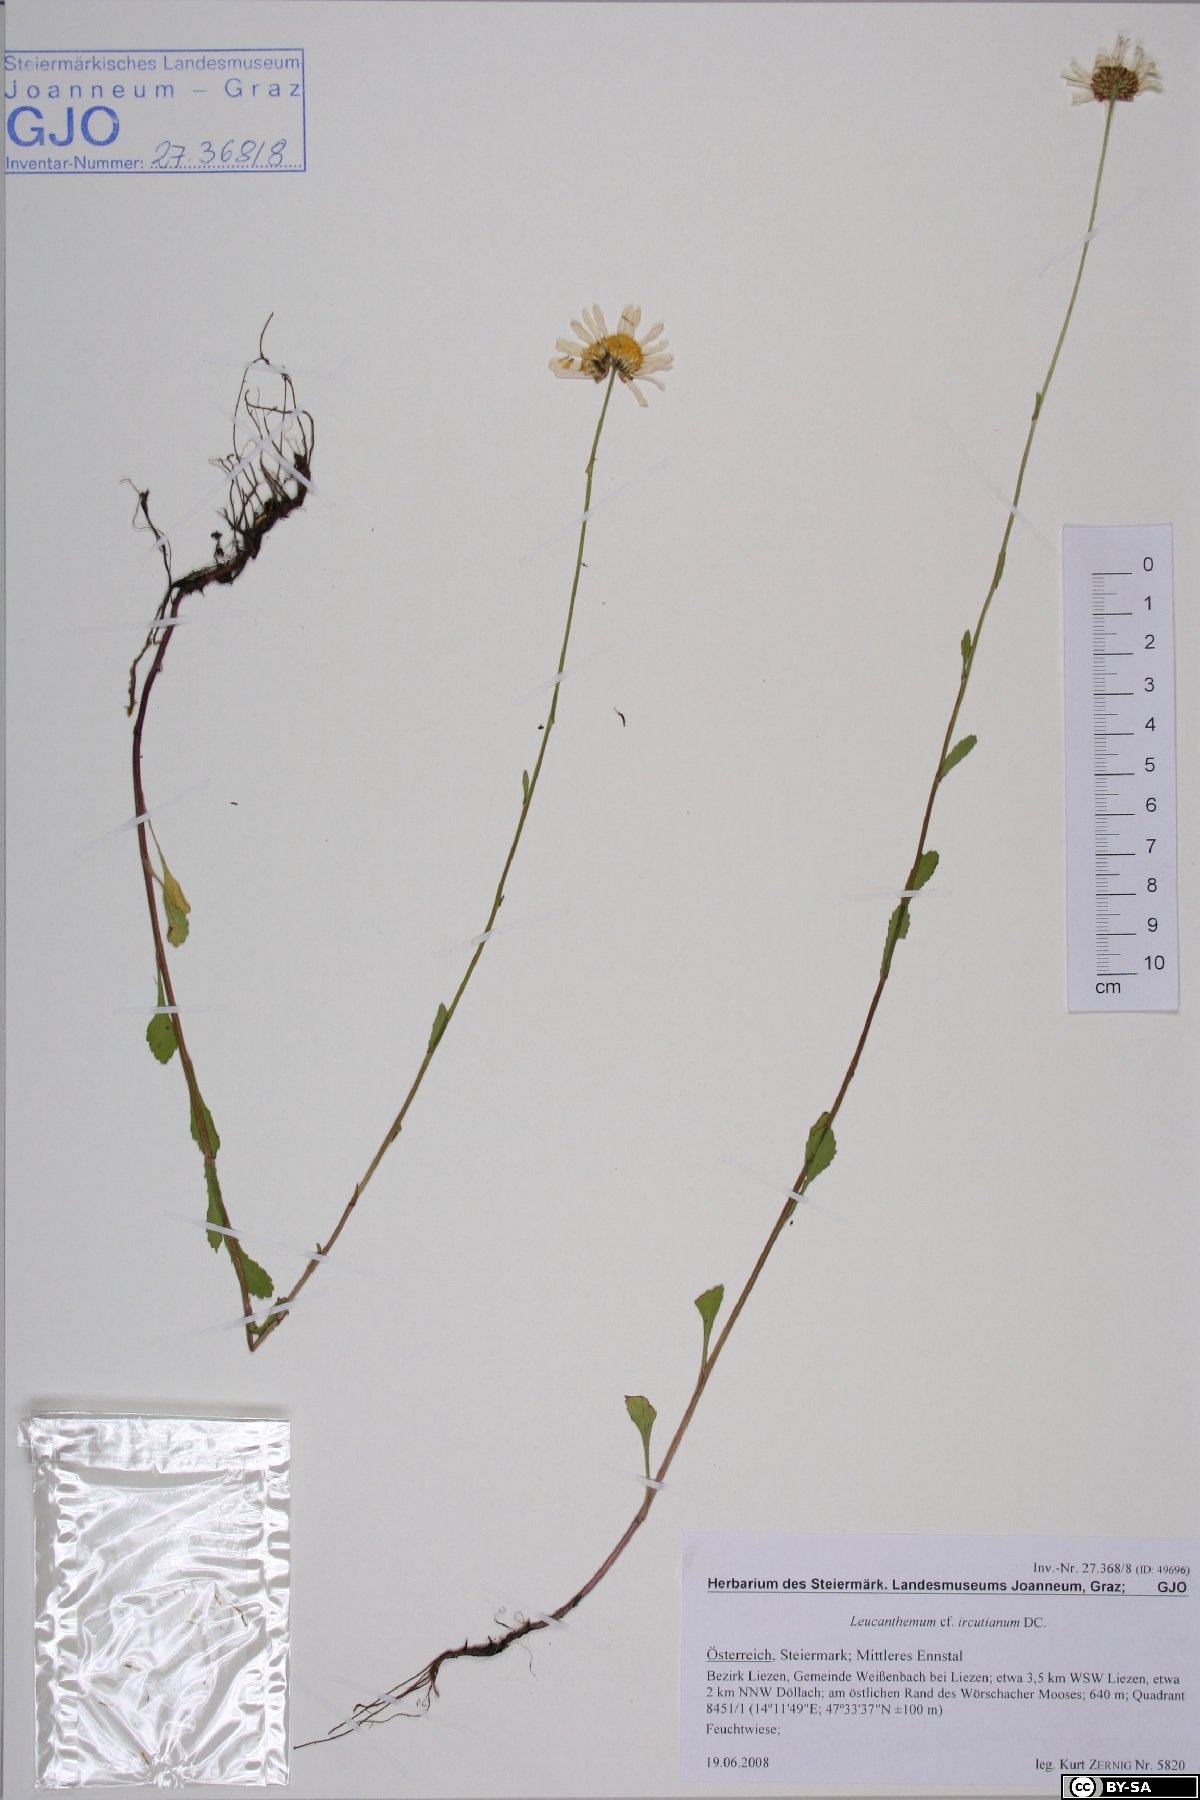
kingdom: Plantae
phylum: Tracheophyta
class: Magnoliopsida
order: Asterales
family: Asteraceae
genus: Leucanthemum
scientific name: Leucanthemum ircutianum
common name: Daisy
